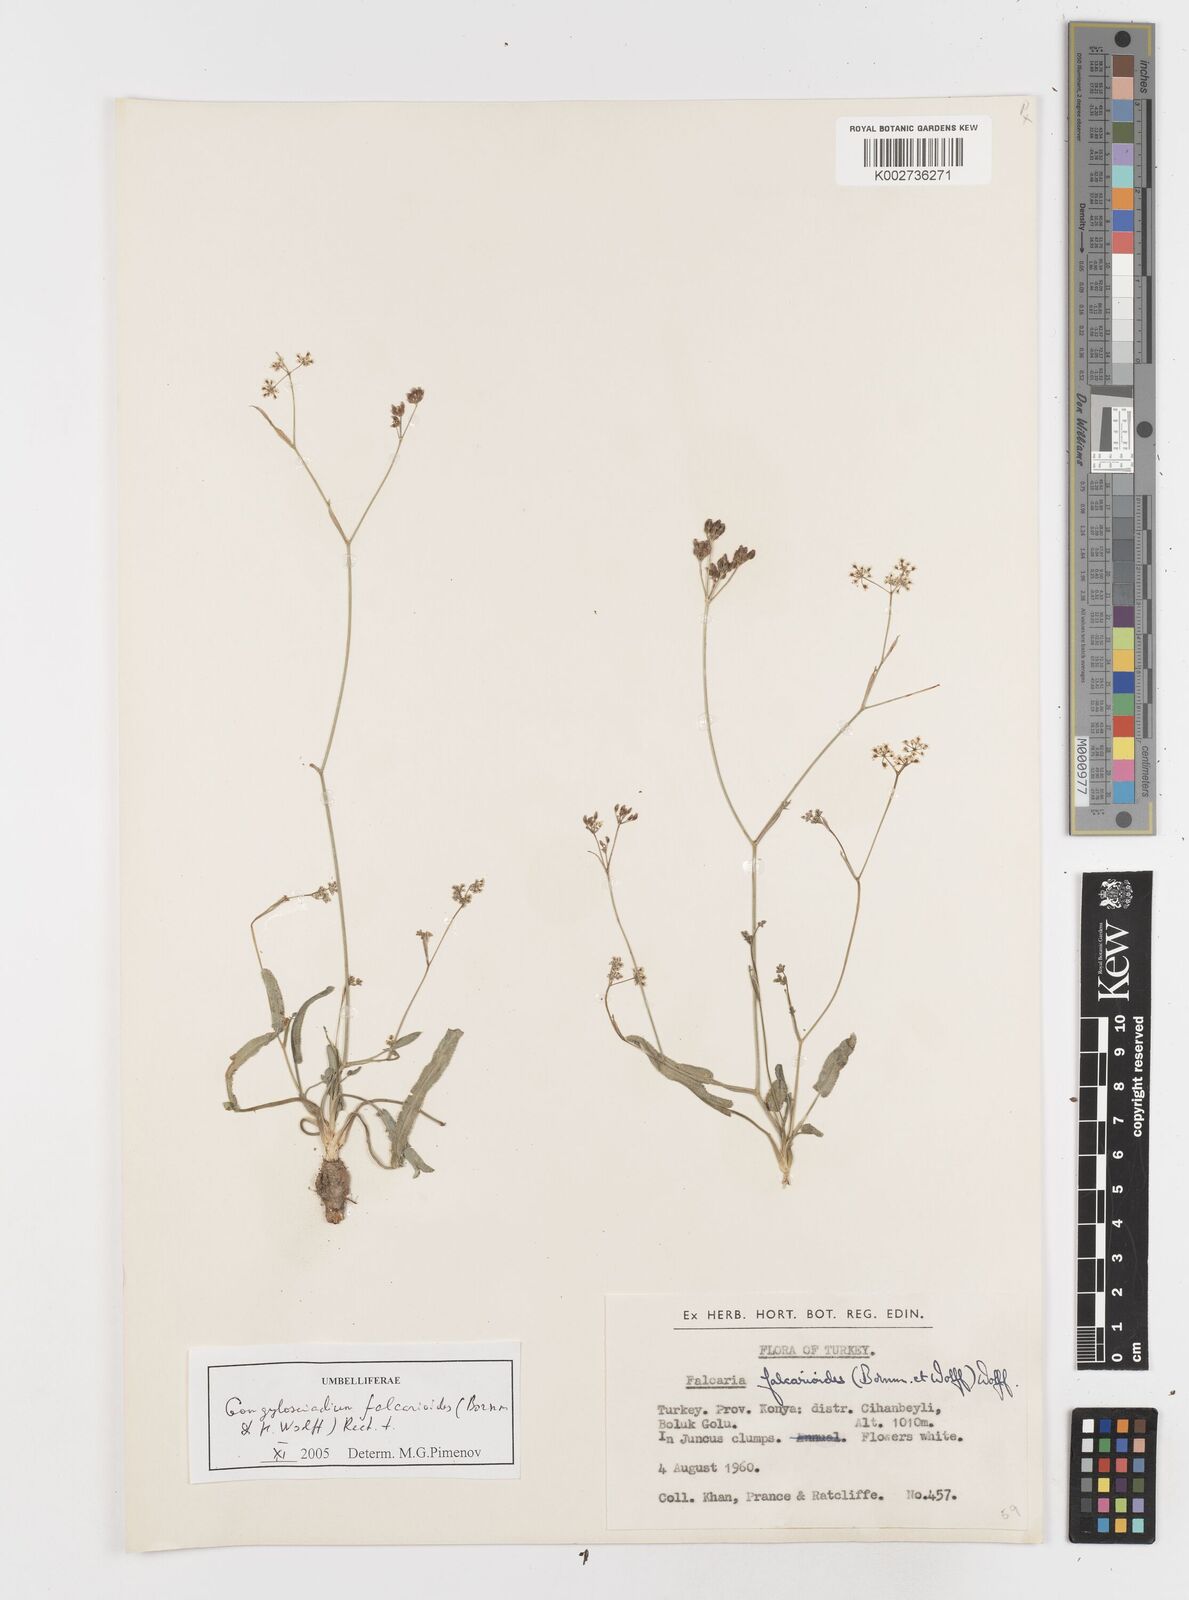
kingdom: Plantae
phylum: Tracheophyta
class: Magnoliopsida
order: Apiales
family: Apiaceae
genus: Gongylosciadium
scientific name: Gongylosciadium falcarioides
